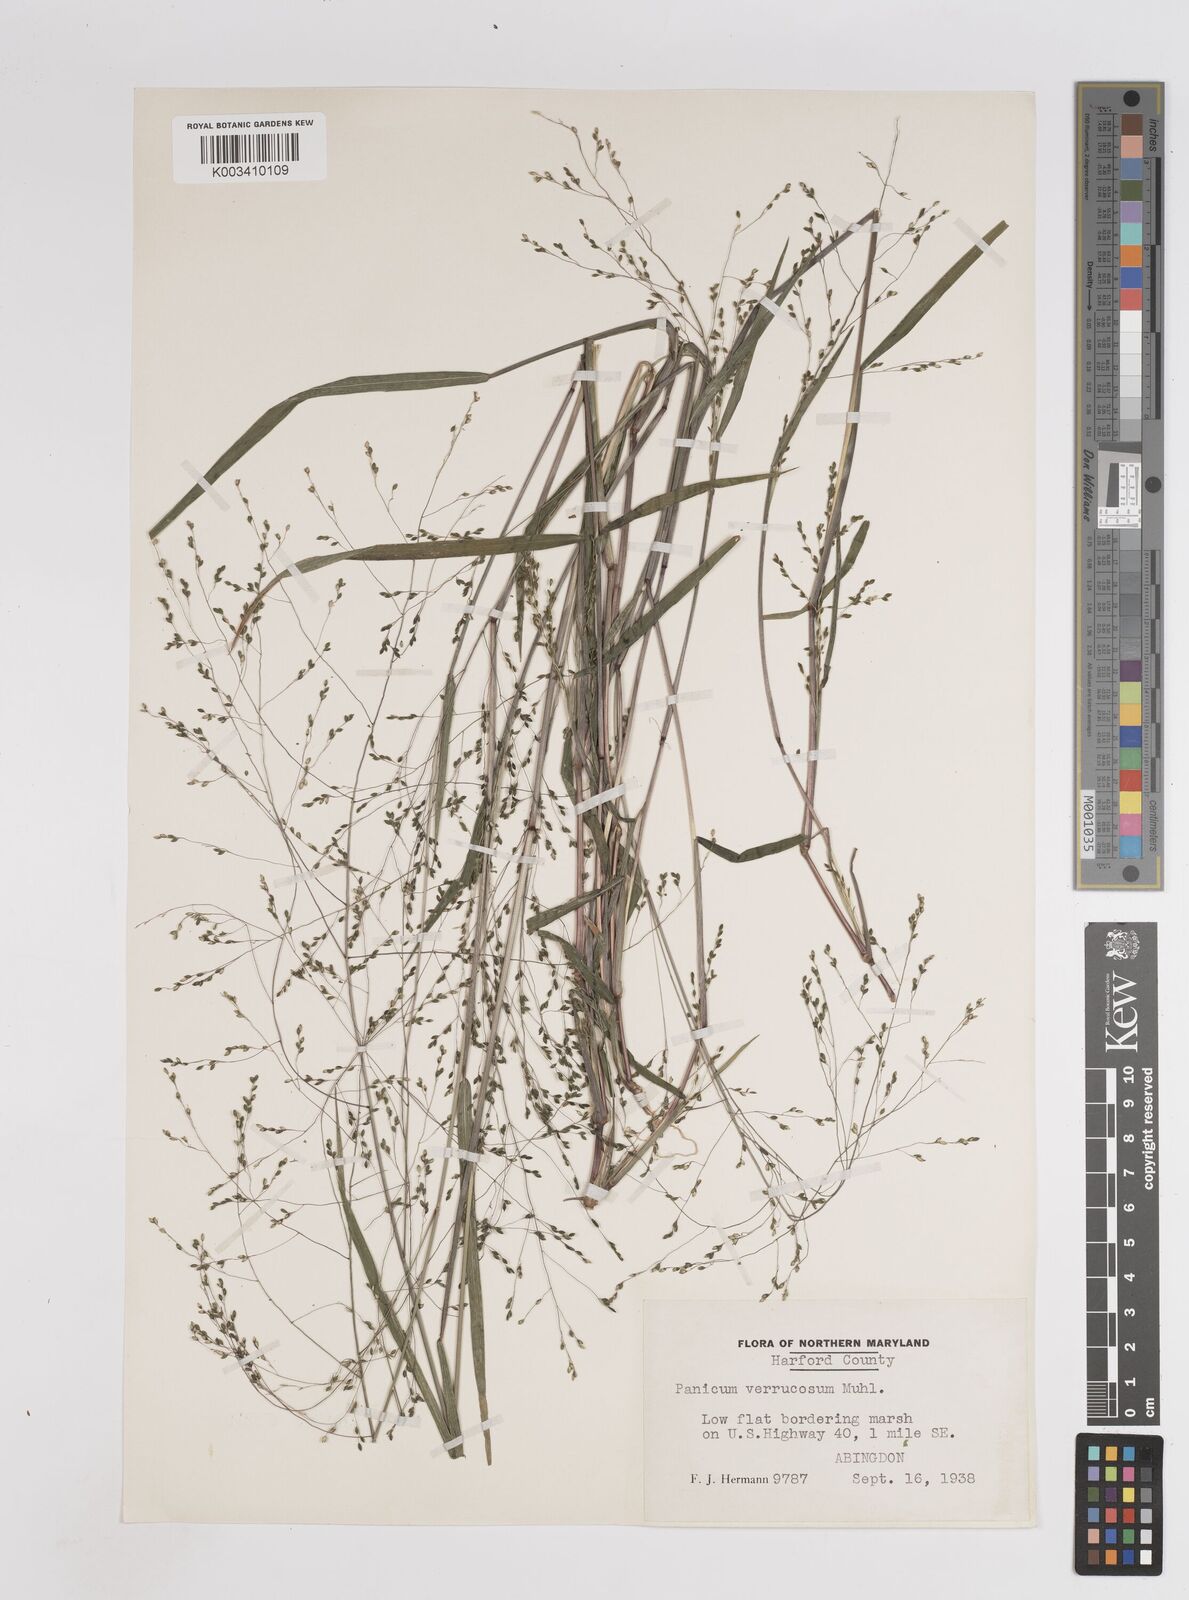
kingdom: Plantae
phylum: Tracheophyta
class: Liliopsida
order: Poales
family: Poaceae
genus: Kellochloa
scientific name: Kellochloa verrucosa
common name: Warty panic grass
